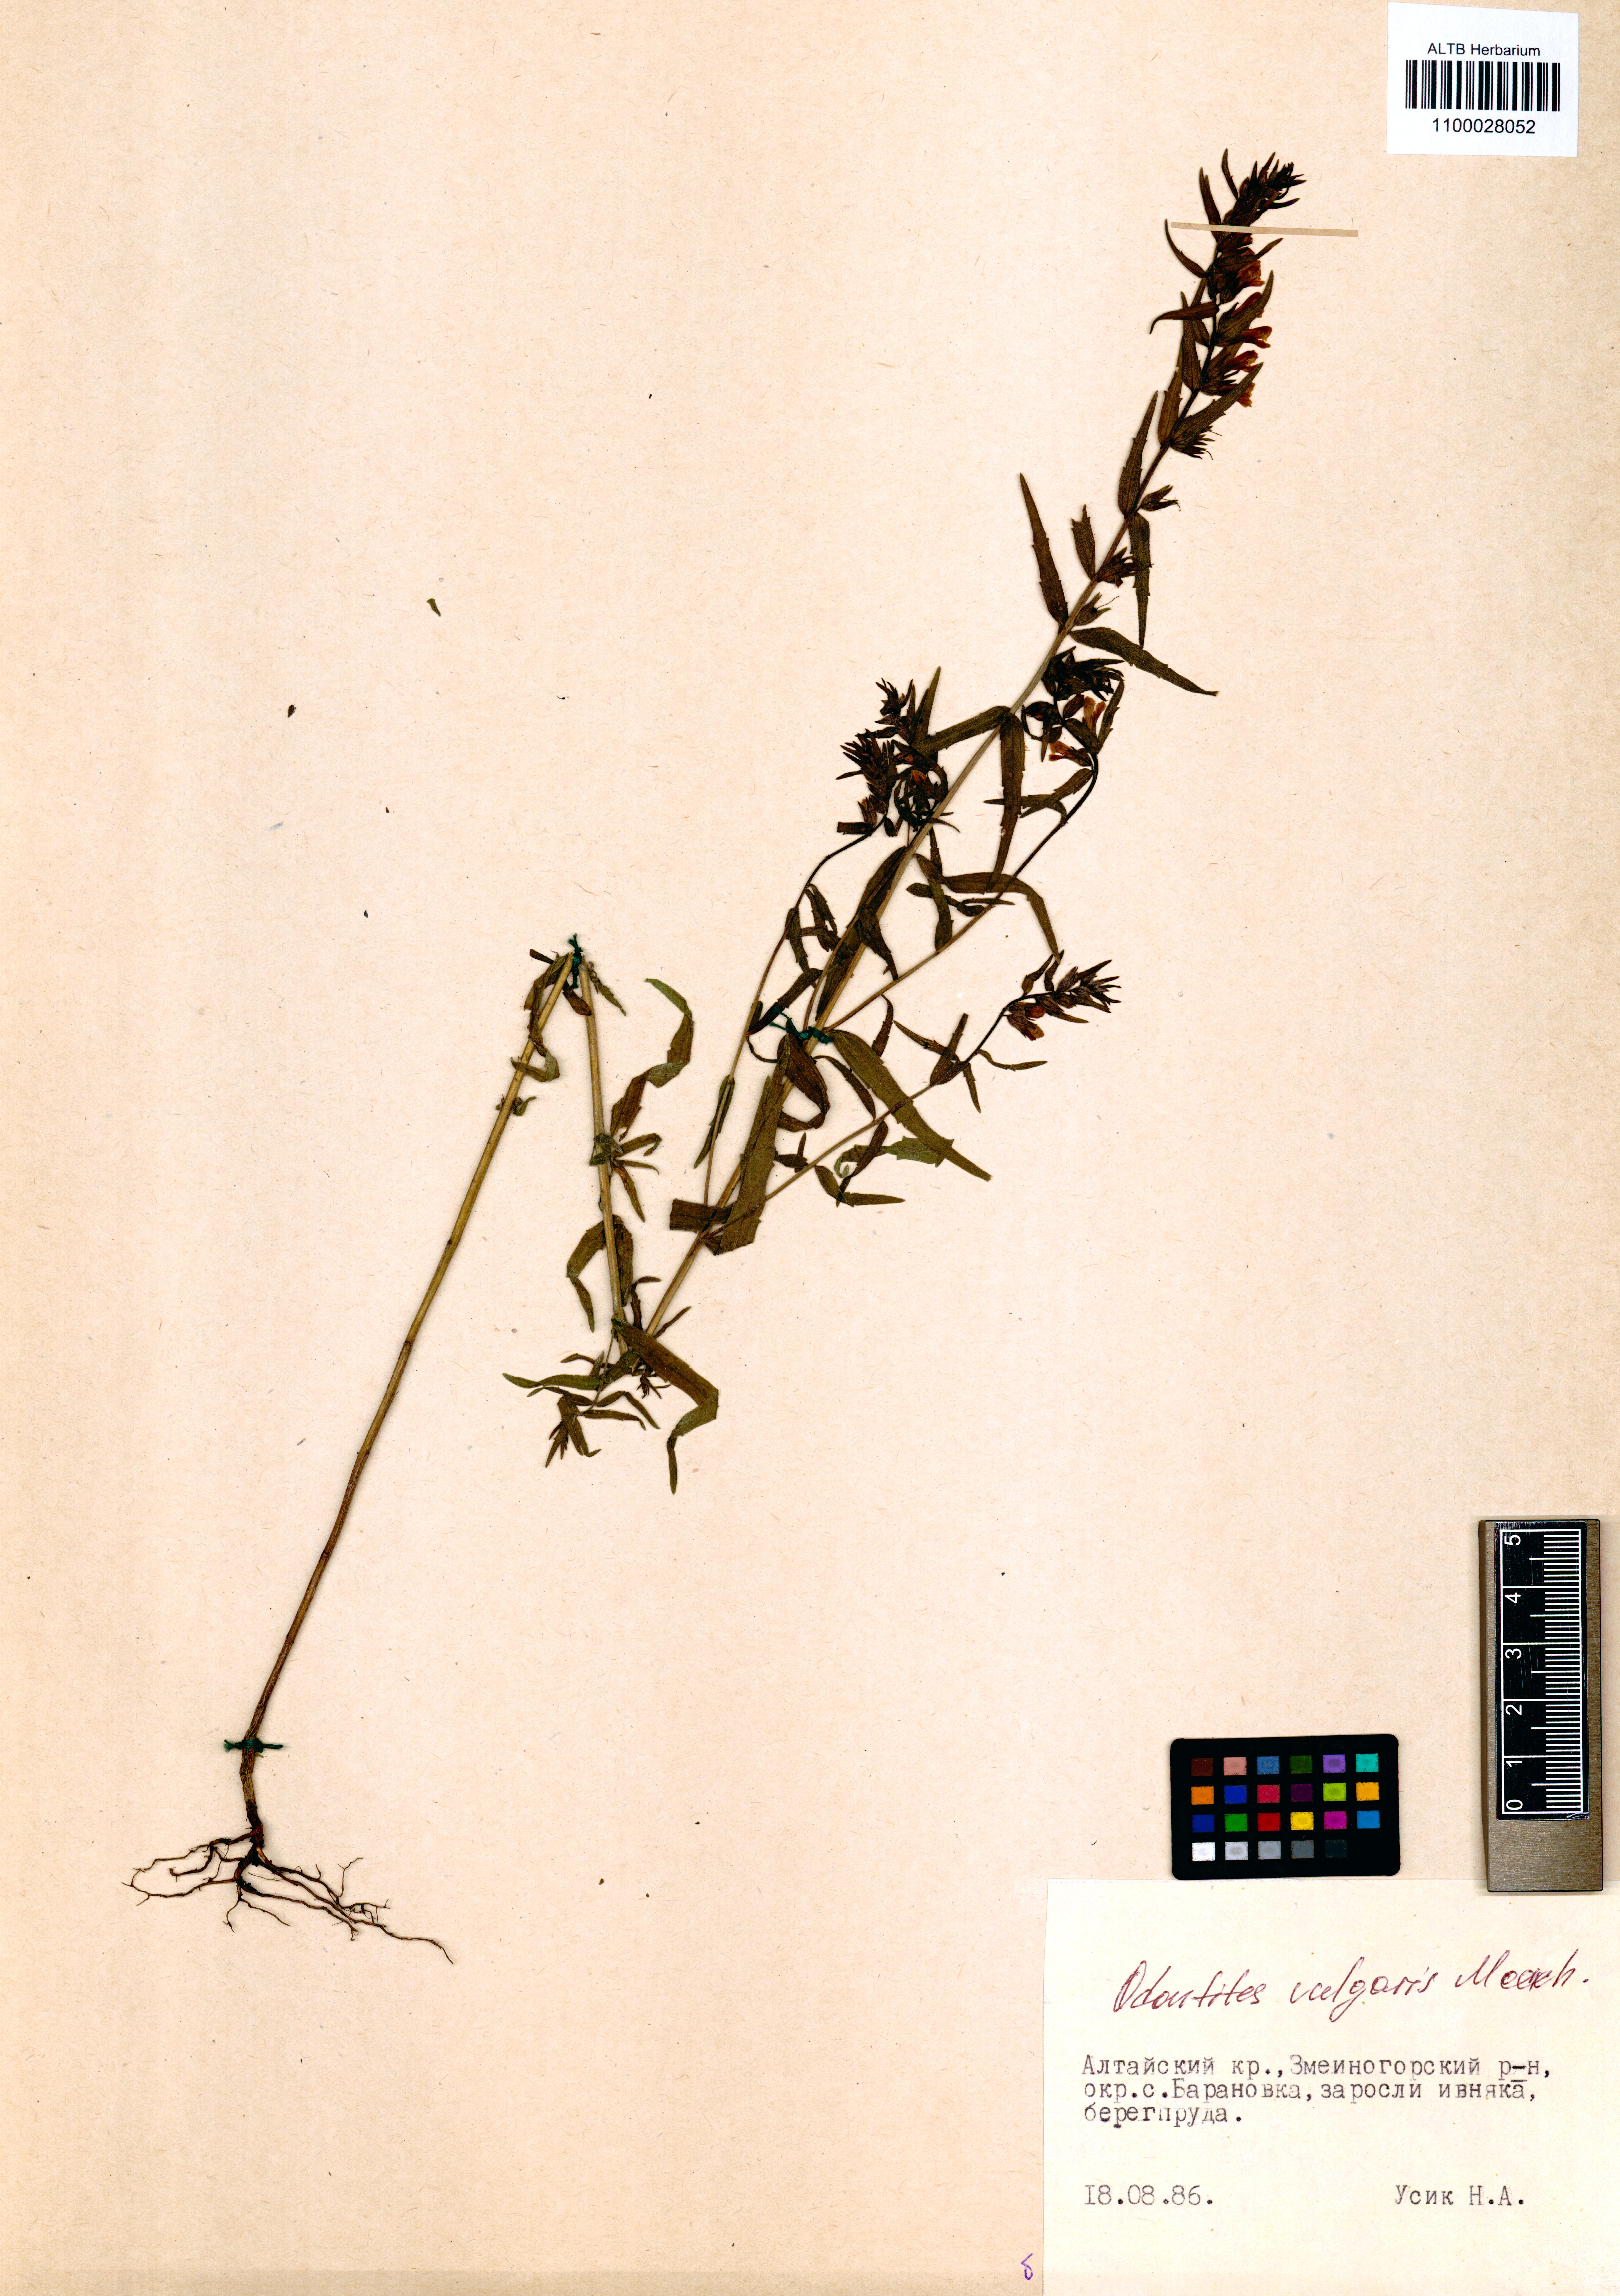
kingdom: Plantae
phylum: Tracheophyta
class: Magnoliopsida
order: Lamiales
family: Orobanchaceae
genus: Odontites
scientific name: Odontites vulgaris
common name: Broomrape
